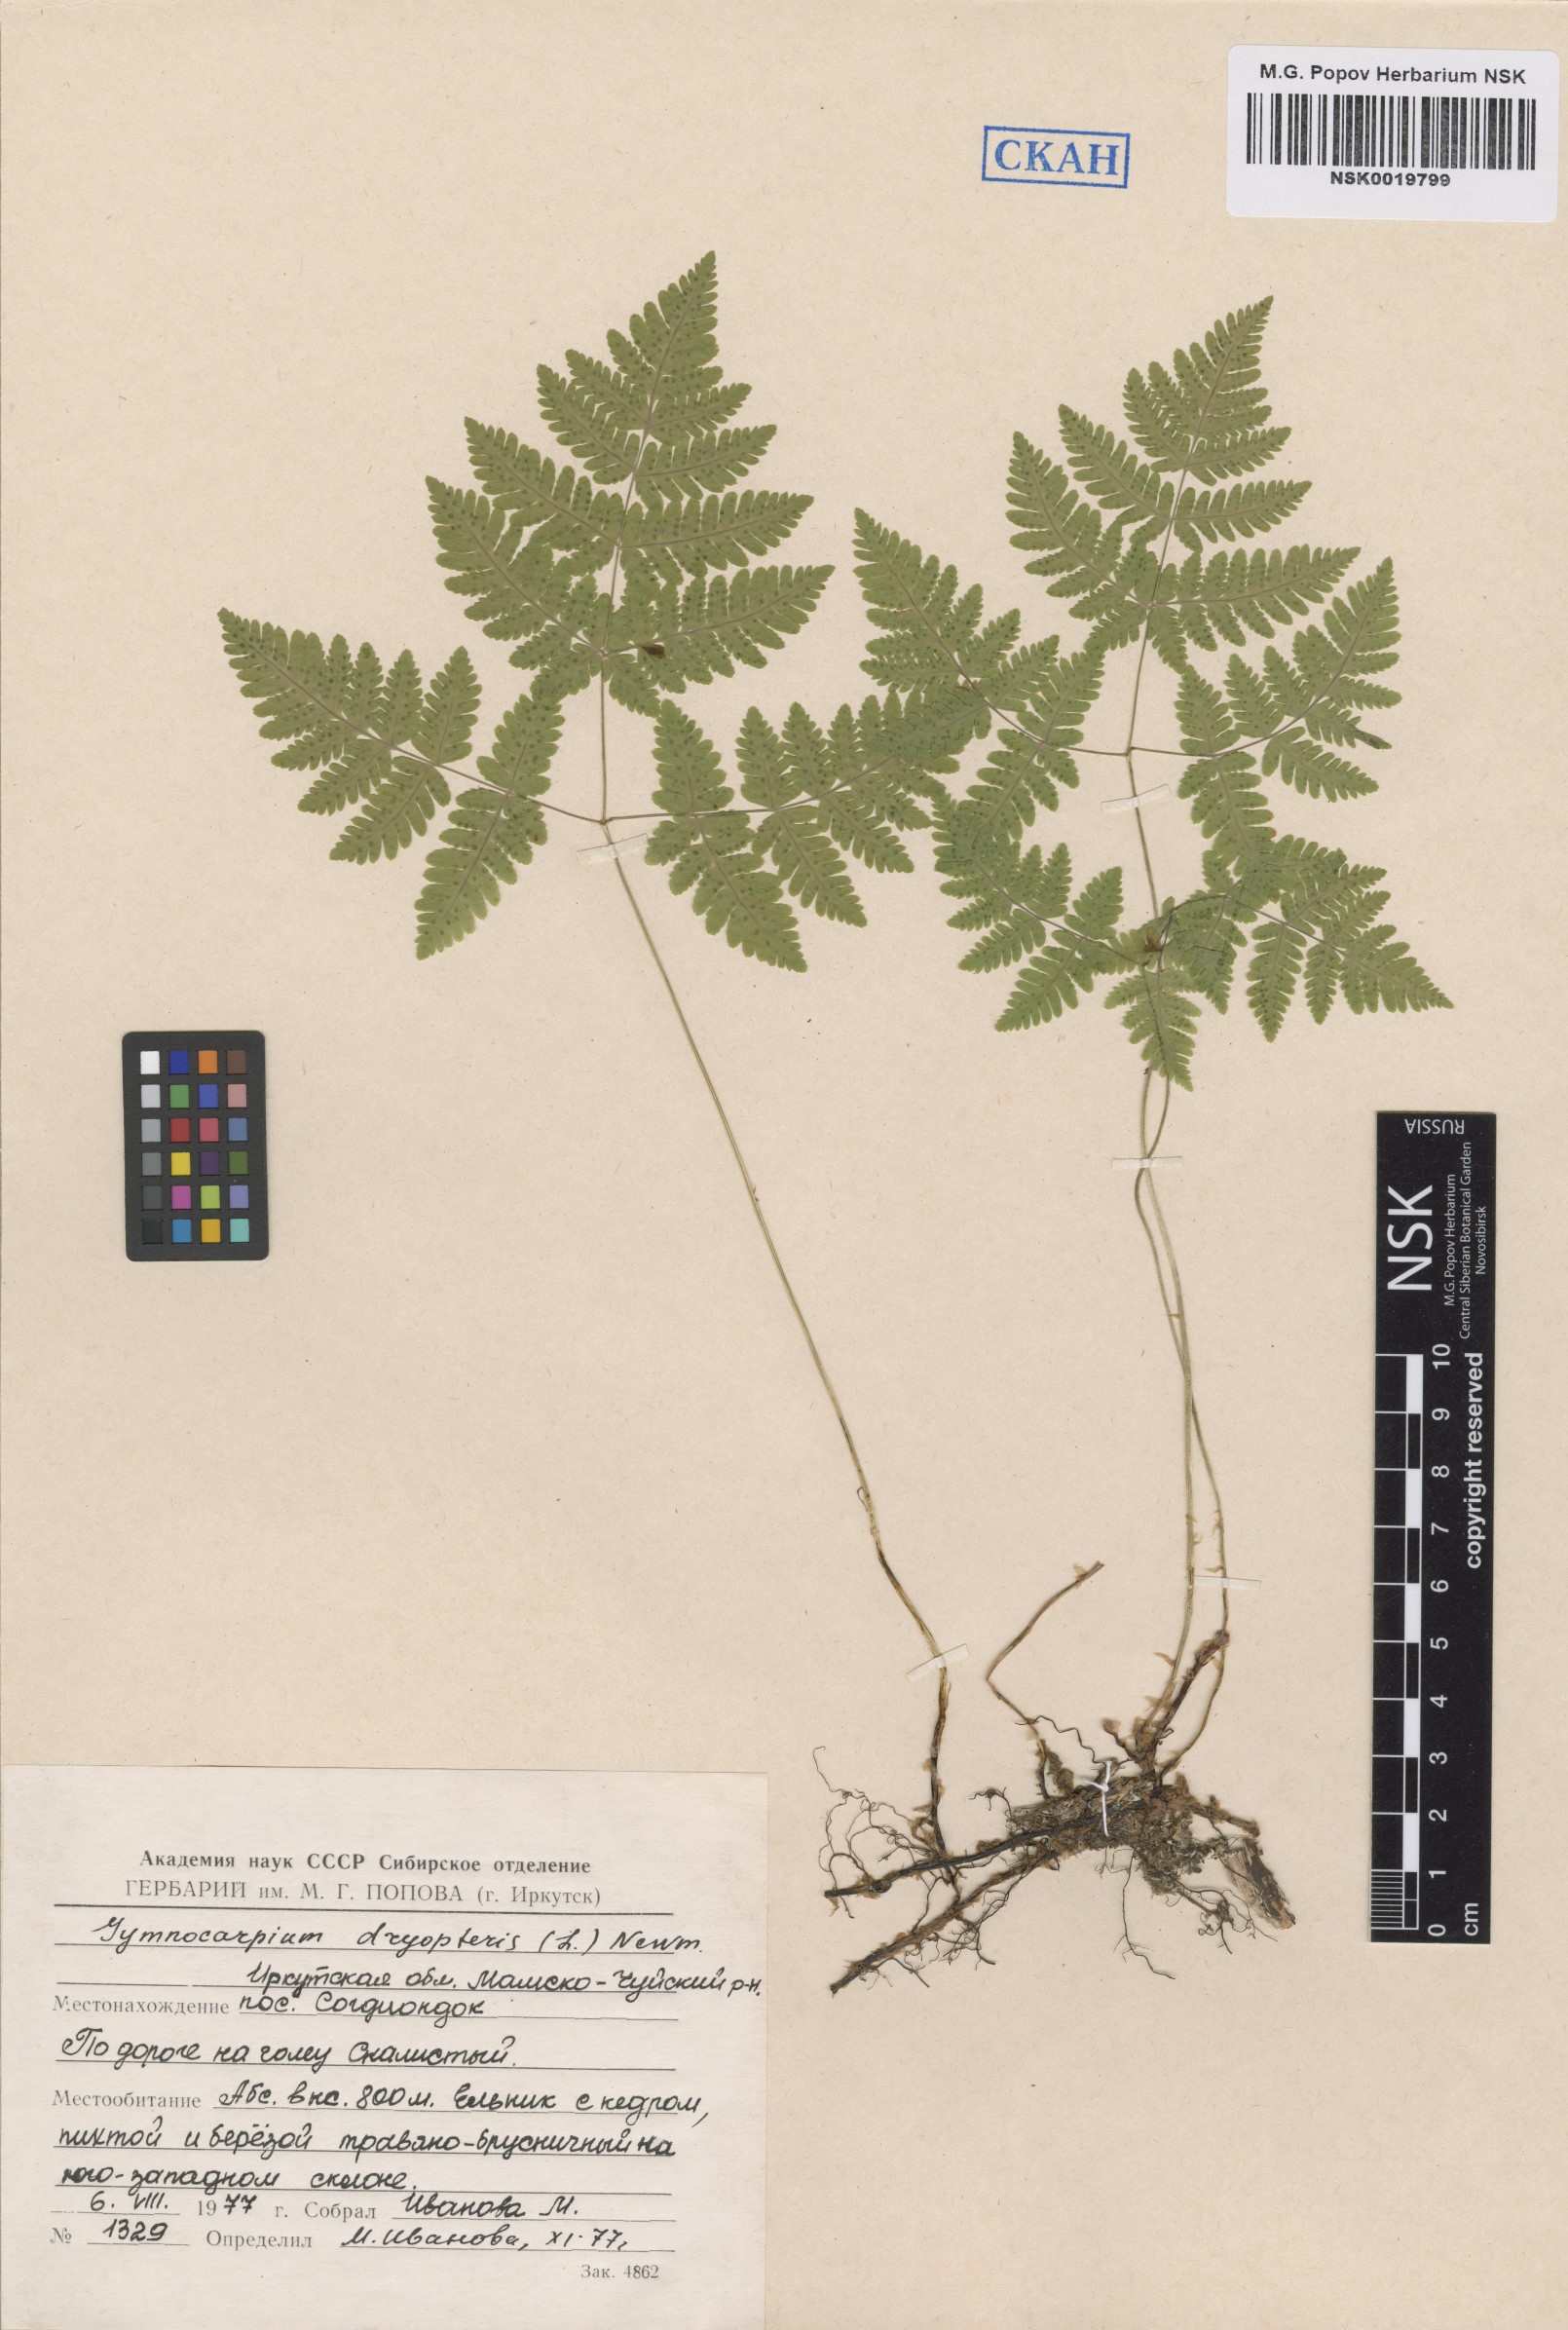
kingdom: Plantae
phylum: Tracheophyta
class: Polypodiopsida
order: Polypodiales
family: Cystopteridaceae
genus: Gymnocarpium
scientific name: Gymnocarpium dryopteris
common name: Oak fern
